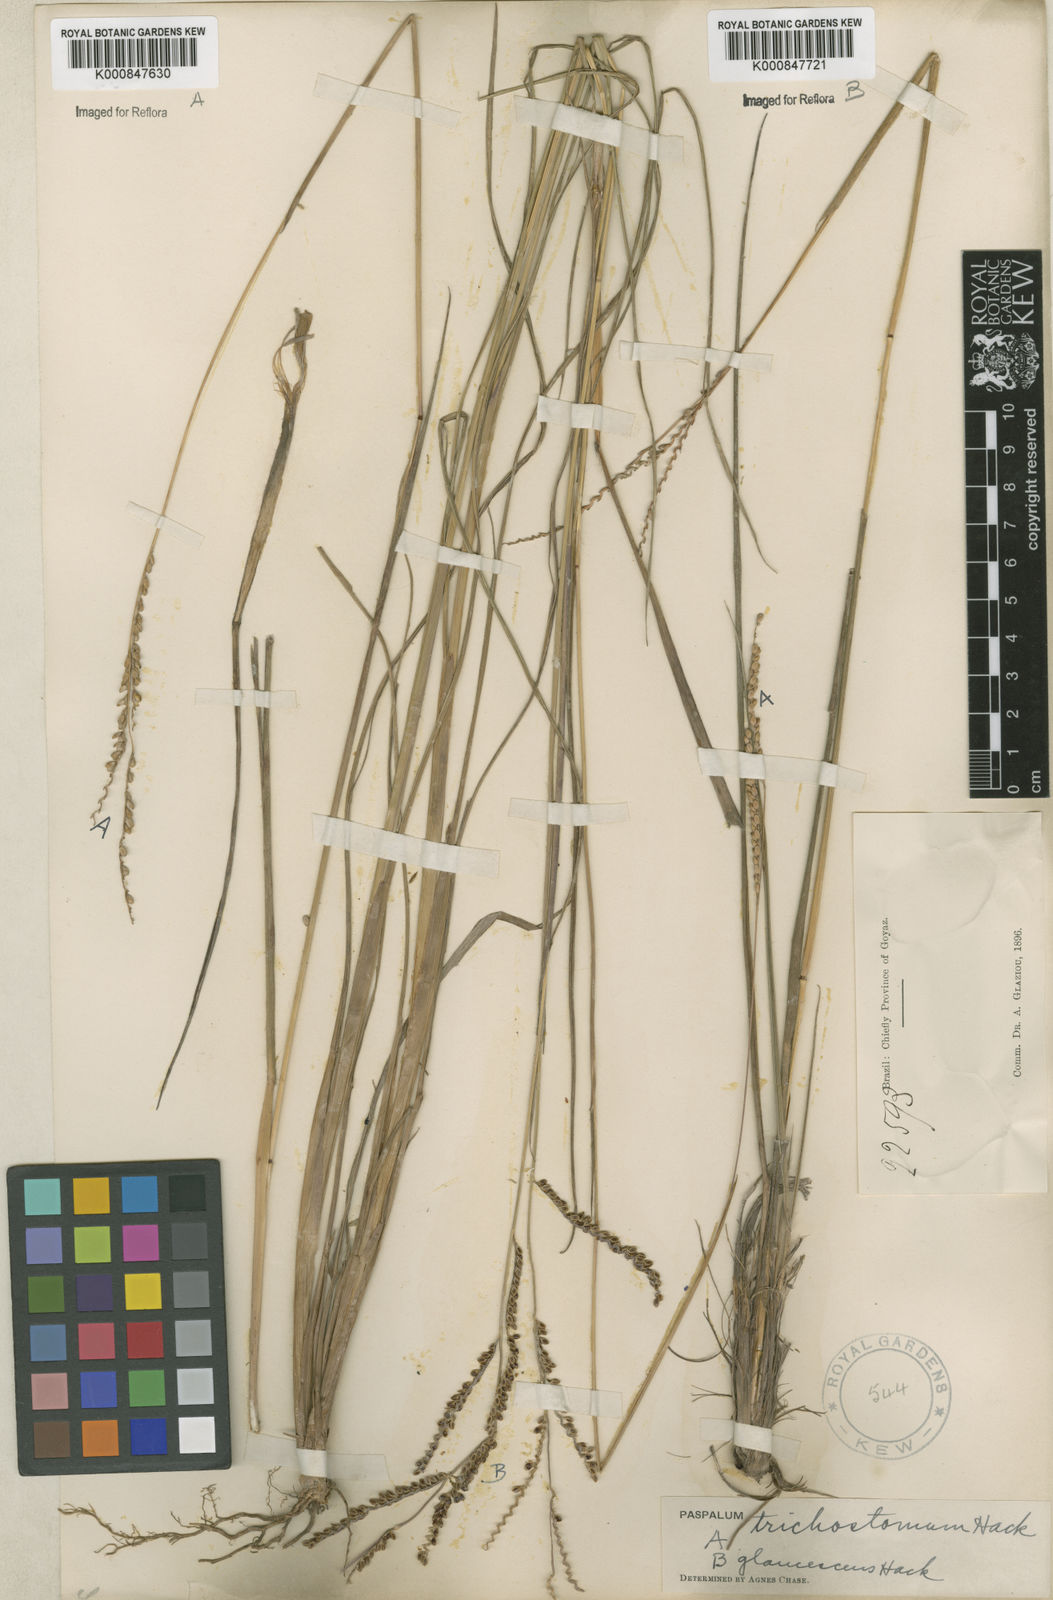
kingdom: Plantae
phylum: Tracheophyta
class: Liliopsida
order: Poales
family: Poaceae
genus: Paspalum
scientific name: Paspalum
